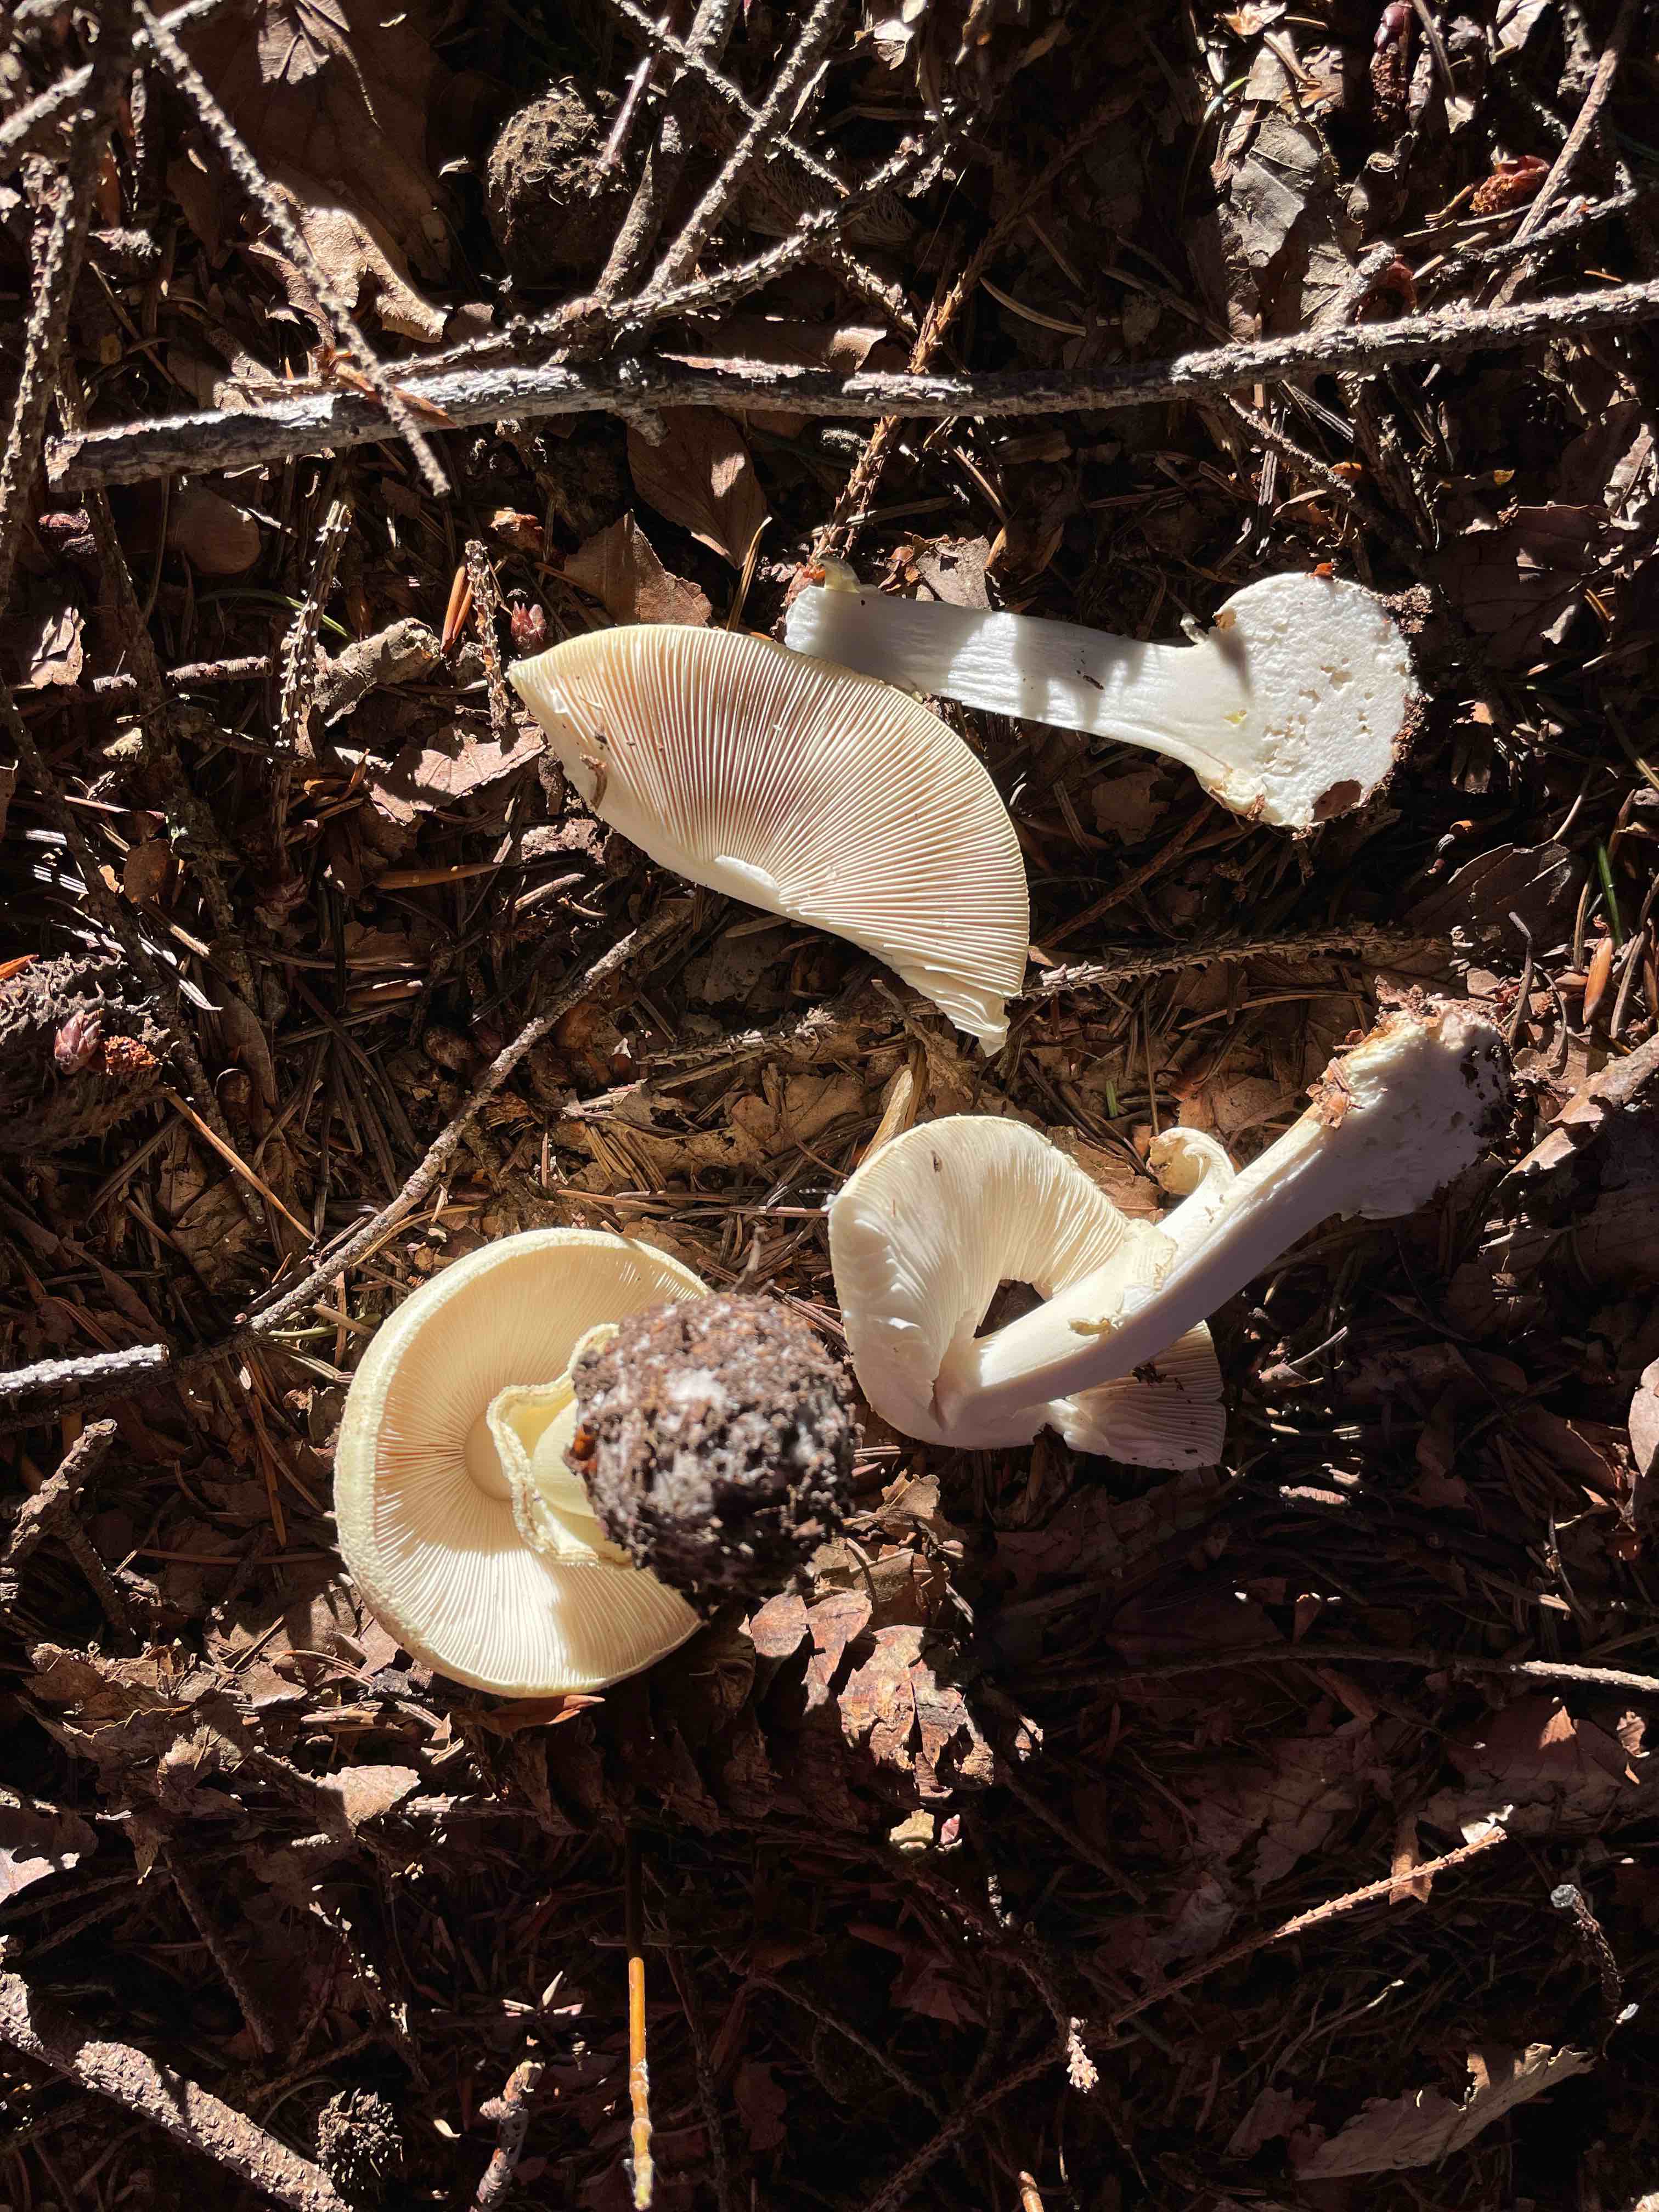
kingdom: Fungi
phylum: Basidiomycota
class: Agaricomycetes
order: Agaricales
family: Amanitaceae
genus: Amanita
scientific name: Amanita citrina
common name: kugleknoldet fluesvamp
